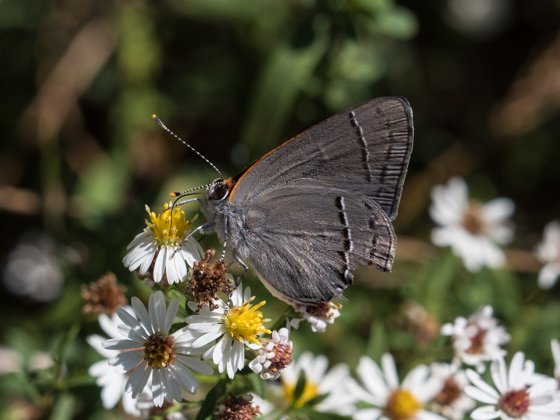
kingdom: Animalia
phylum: Arthropoda
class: Insecta
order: Lepidoptera
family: Lycaenidae
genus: Strymon
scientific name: Strymon melinus
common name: Gray Hairstreak
